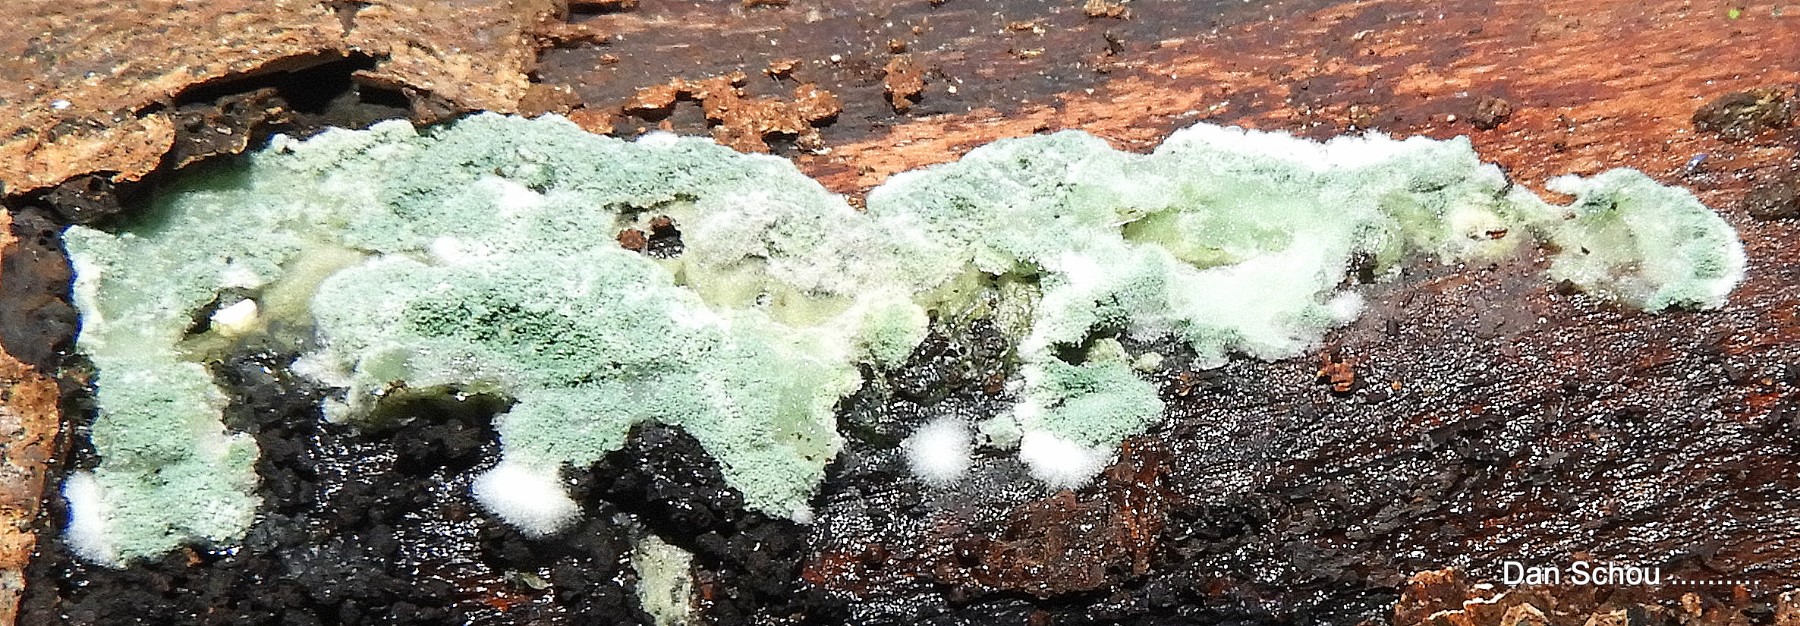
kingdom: Fungi
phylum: Ascomycota
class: Sordariomycetes
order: Hypocreales
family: Hypocreaceae
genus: Trichoderma
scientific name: Trichoderma
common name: kødkerne
